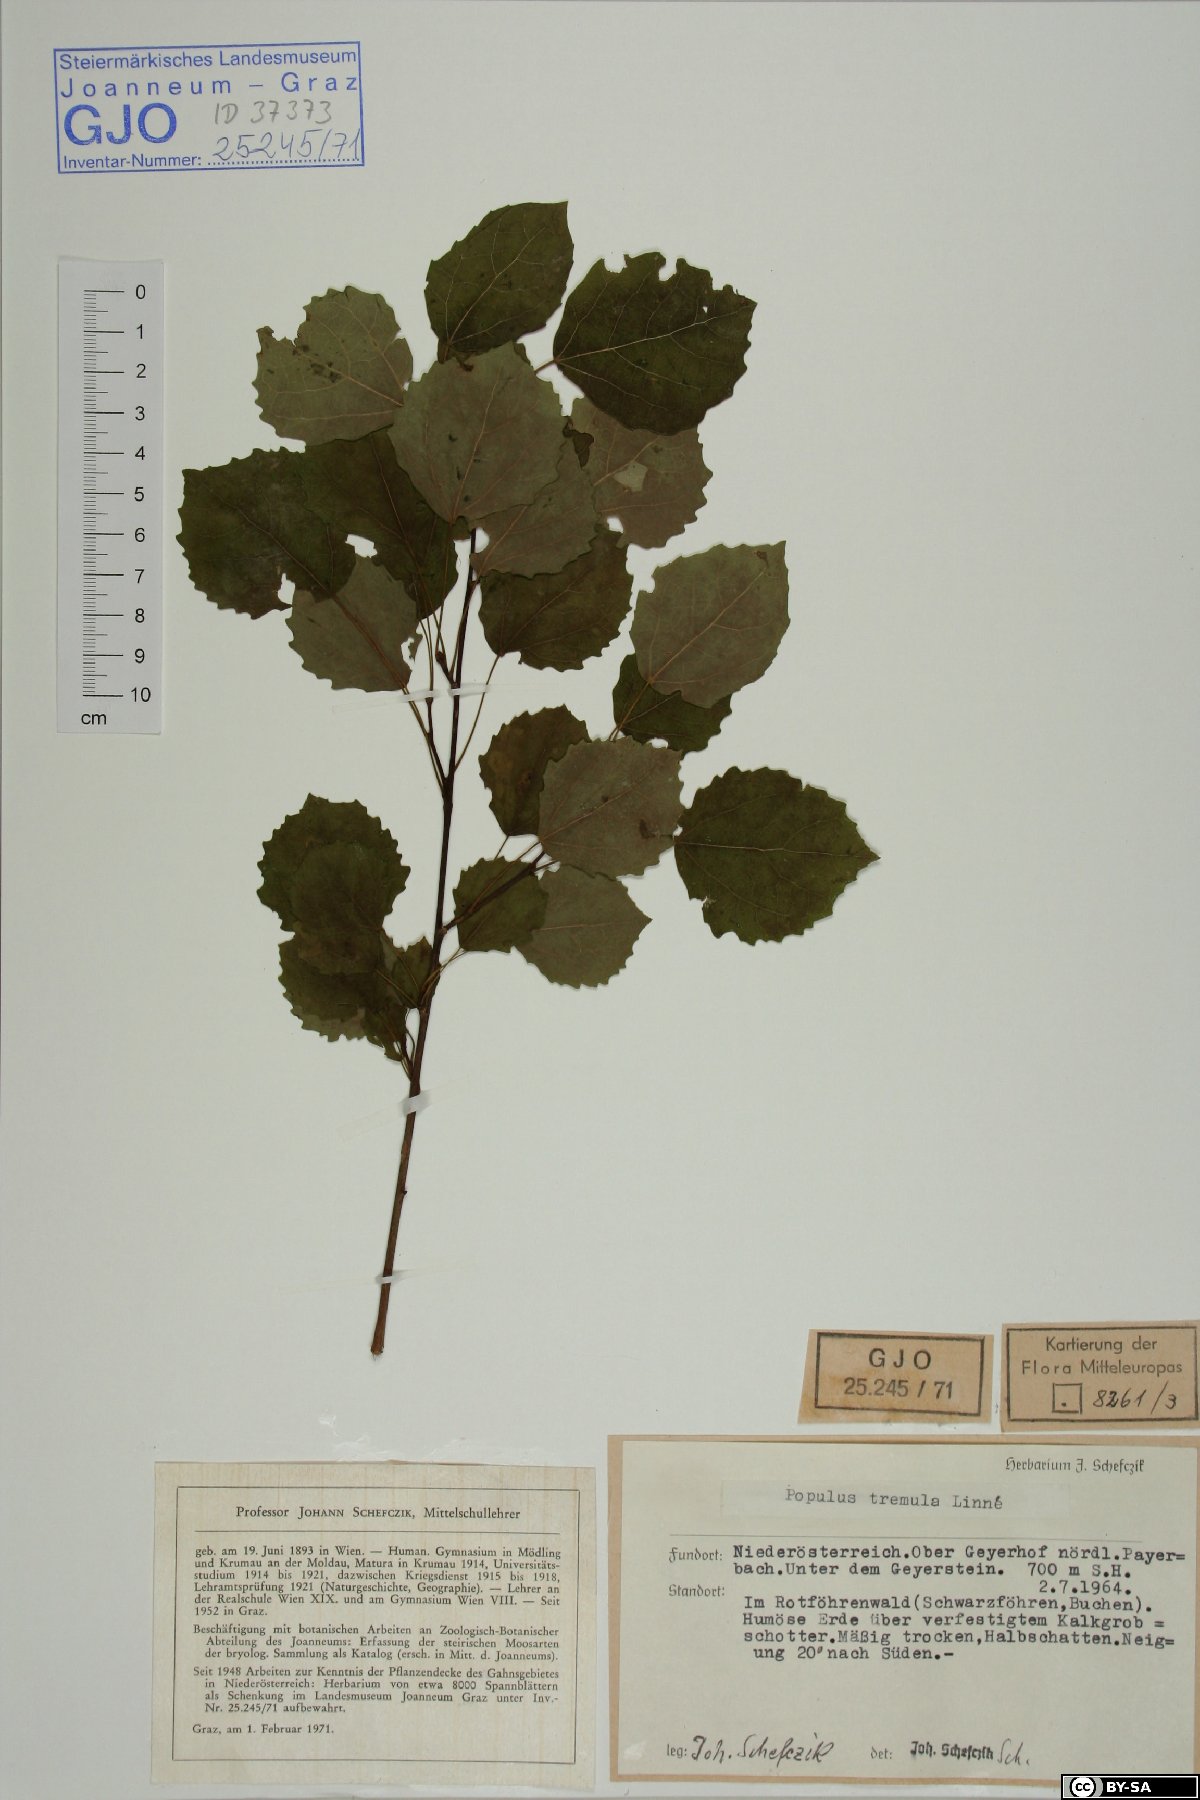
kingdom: Plantae
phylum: Tracheophyta
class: Magnoliopsida
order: Malpighiales
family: Salicaceae
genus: Populus
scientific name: Populus tremula
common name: European aspen
